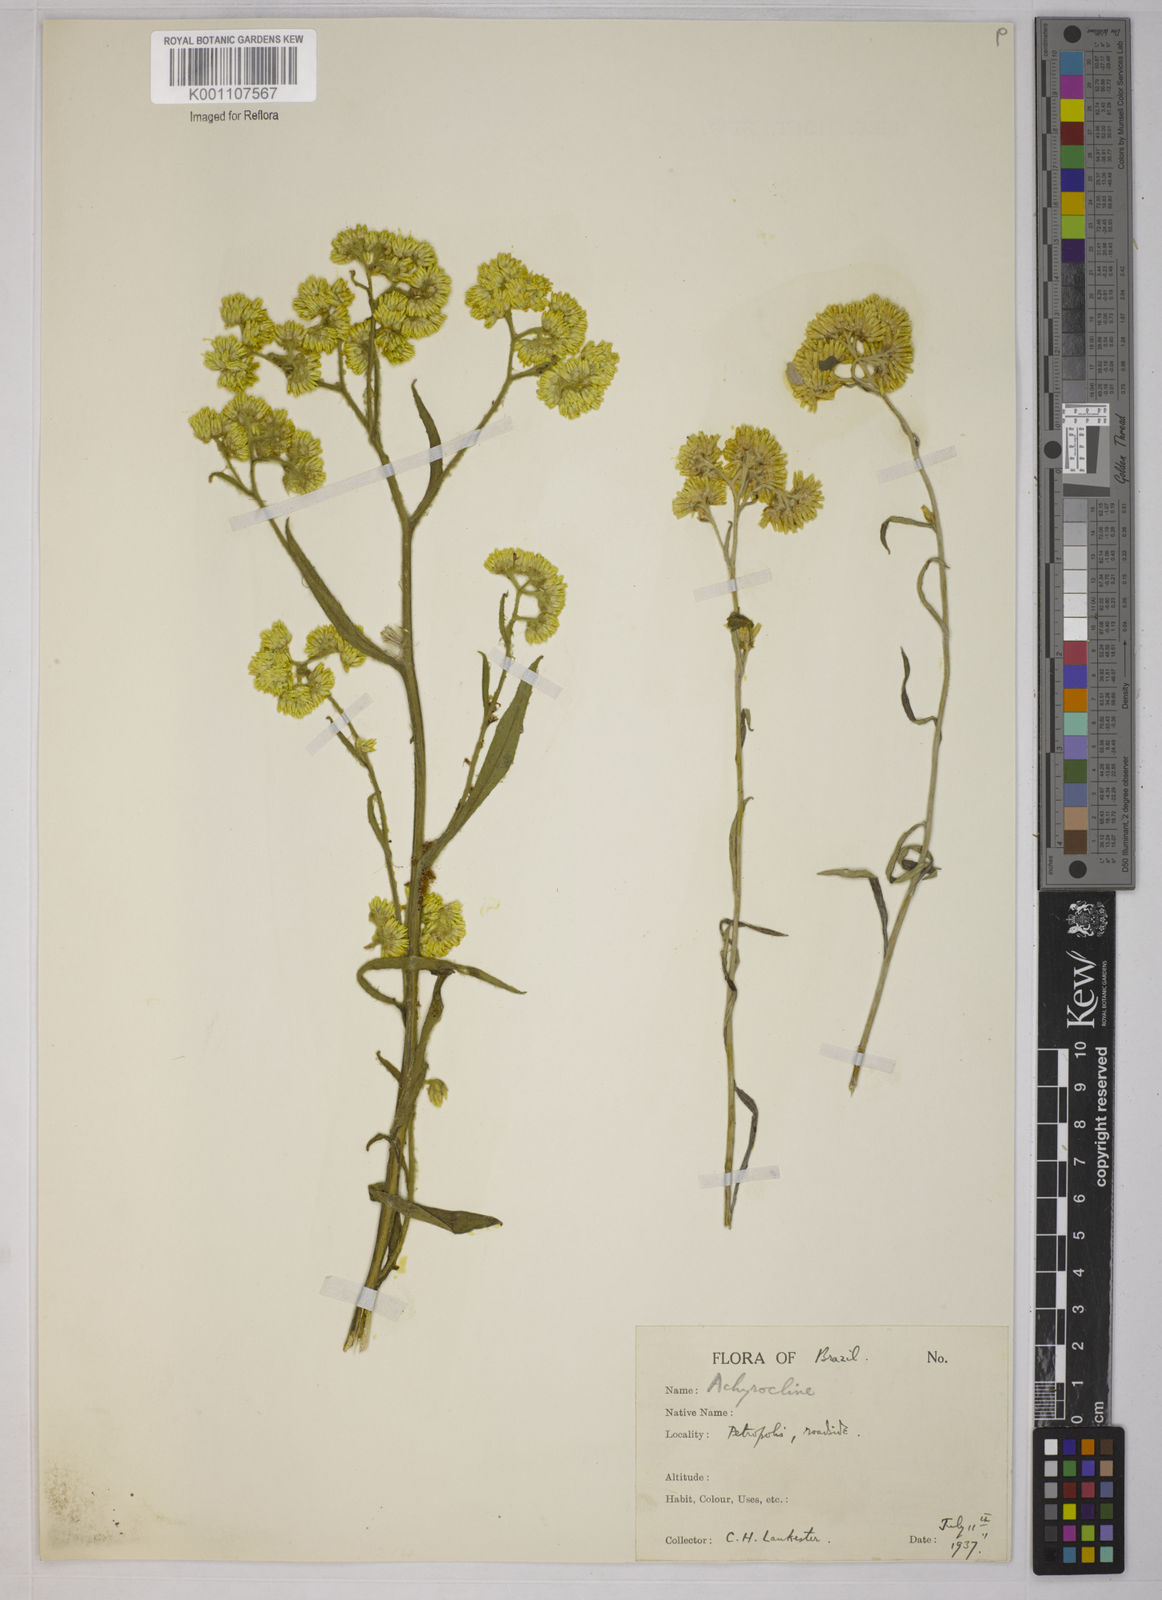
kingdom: Plantae
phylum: Tracheophyta
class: Magnoliopsida
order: Asterales
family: Asteraceae
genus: Achyrocline
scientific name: Achyrocline
